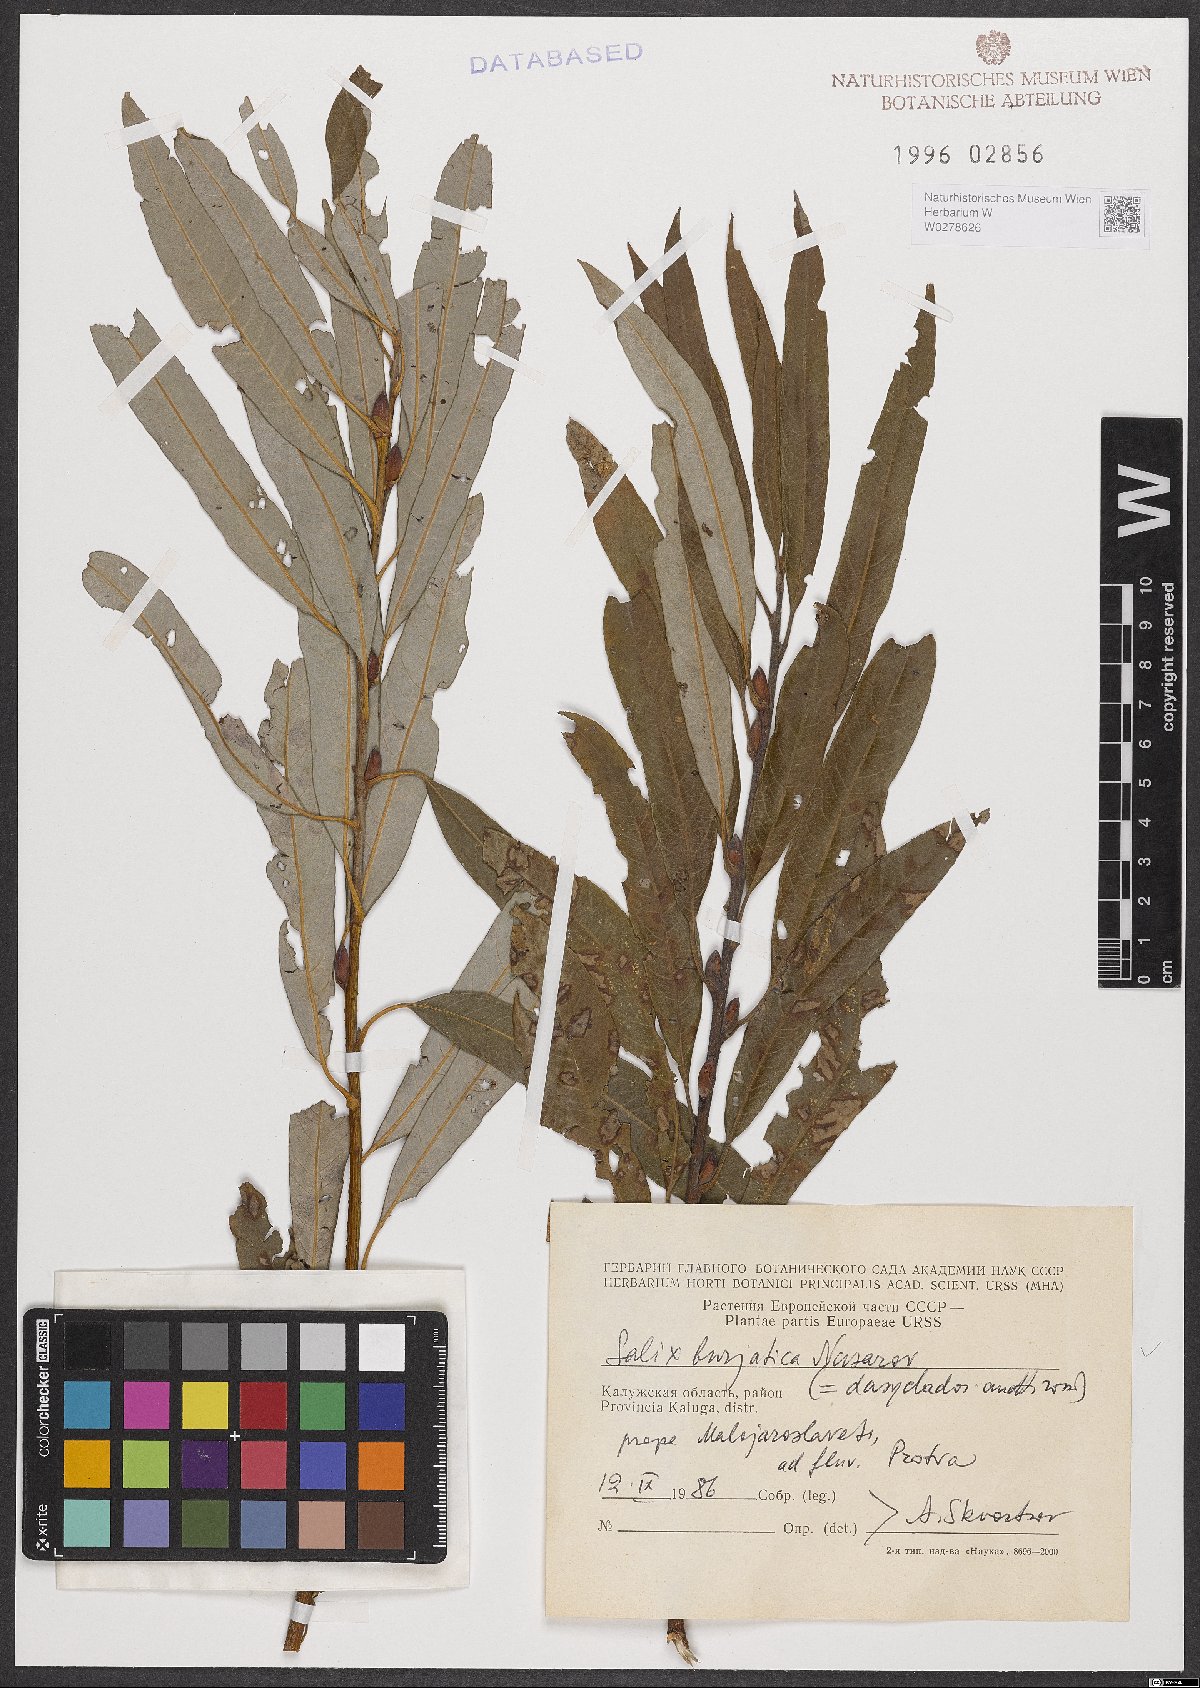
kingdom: Plantae
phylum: Tracheophyta
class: Magnoliopsida
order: Malpighiales
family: Salicaceae
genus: Salix
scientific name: Salix gmelinii
